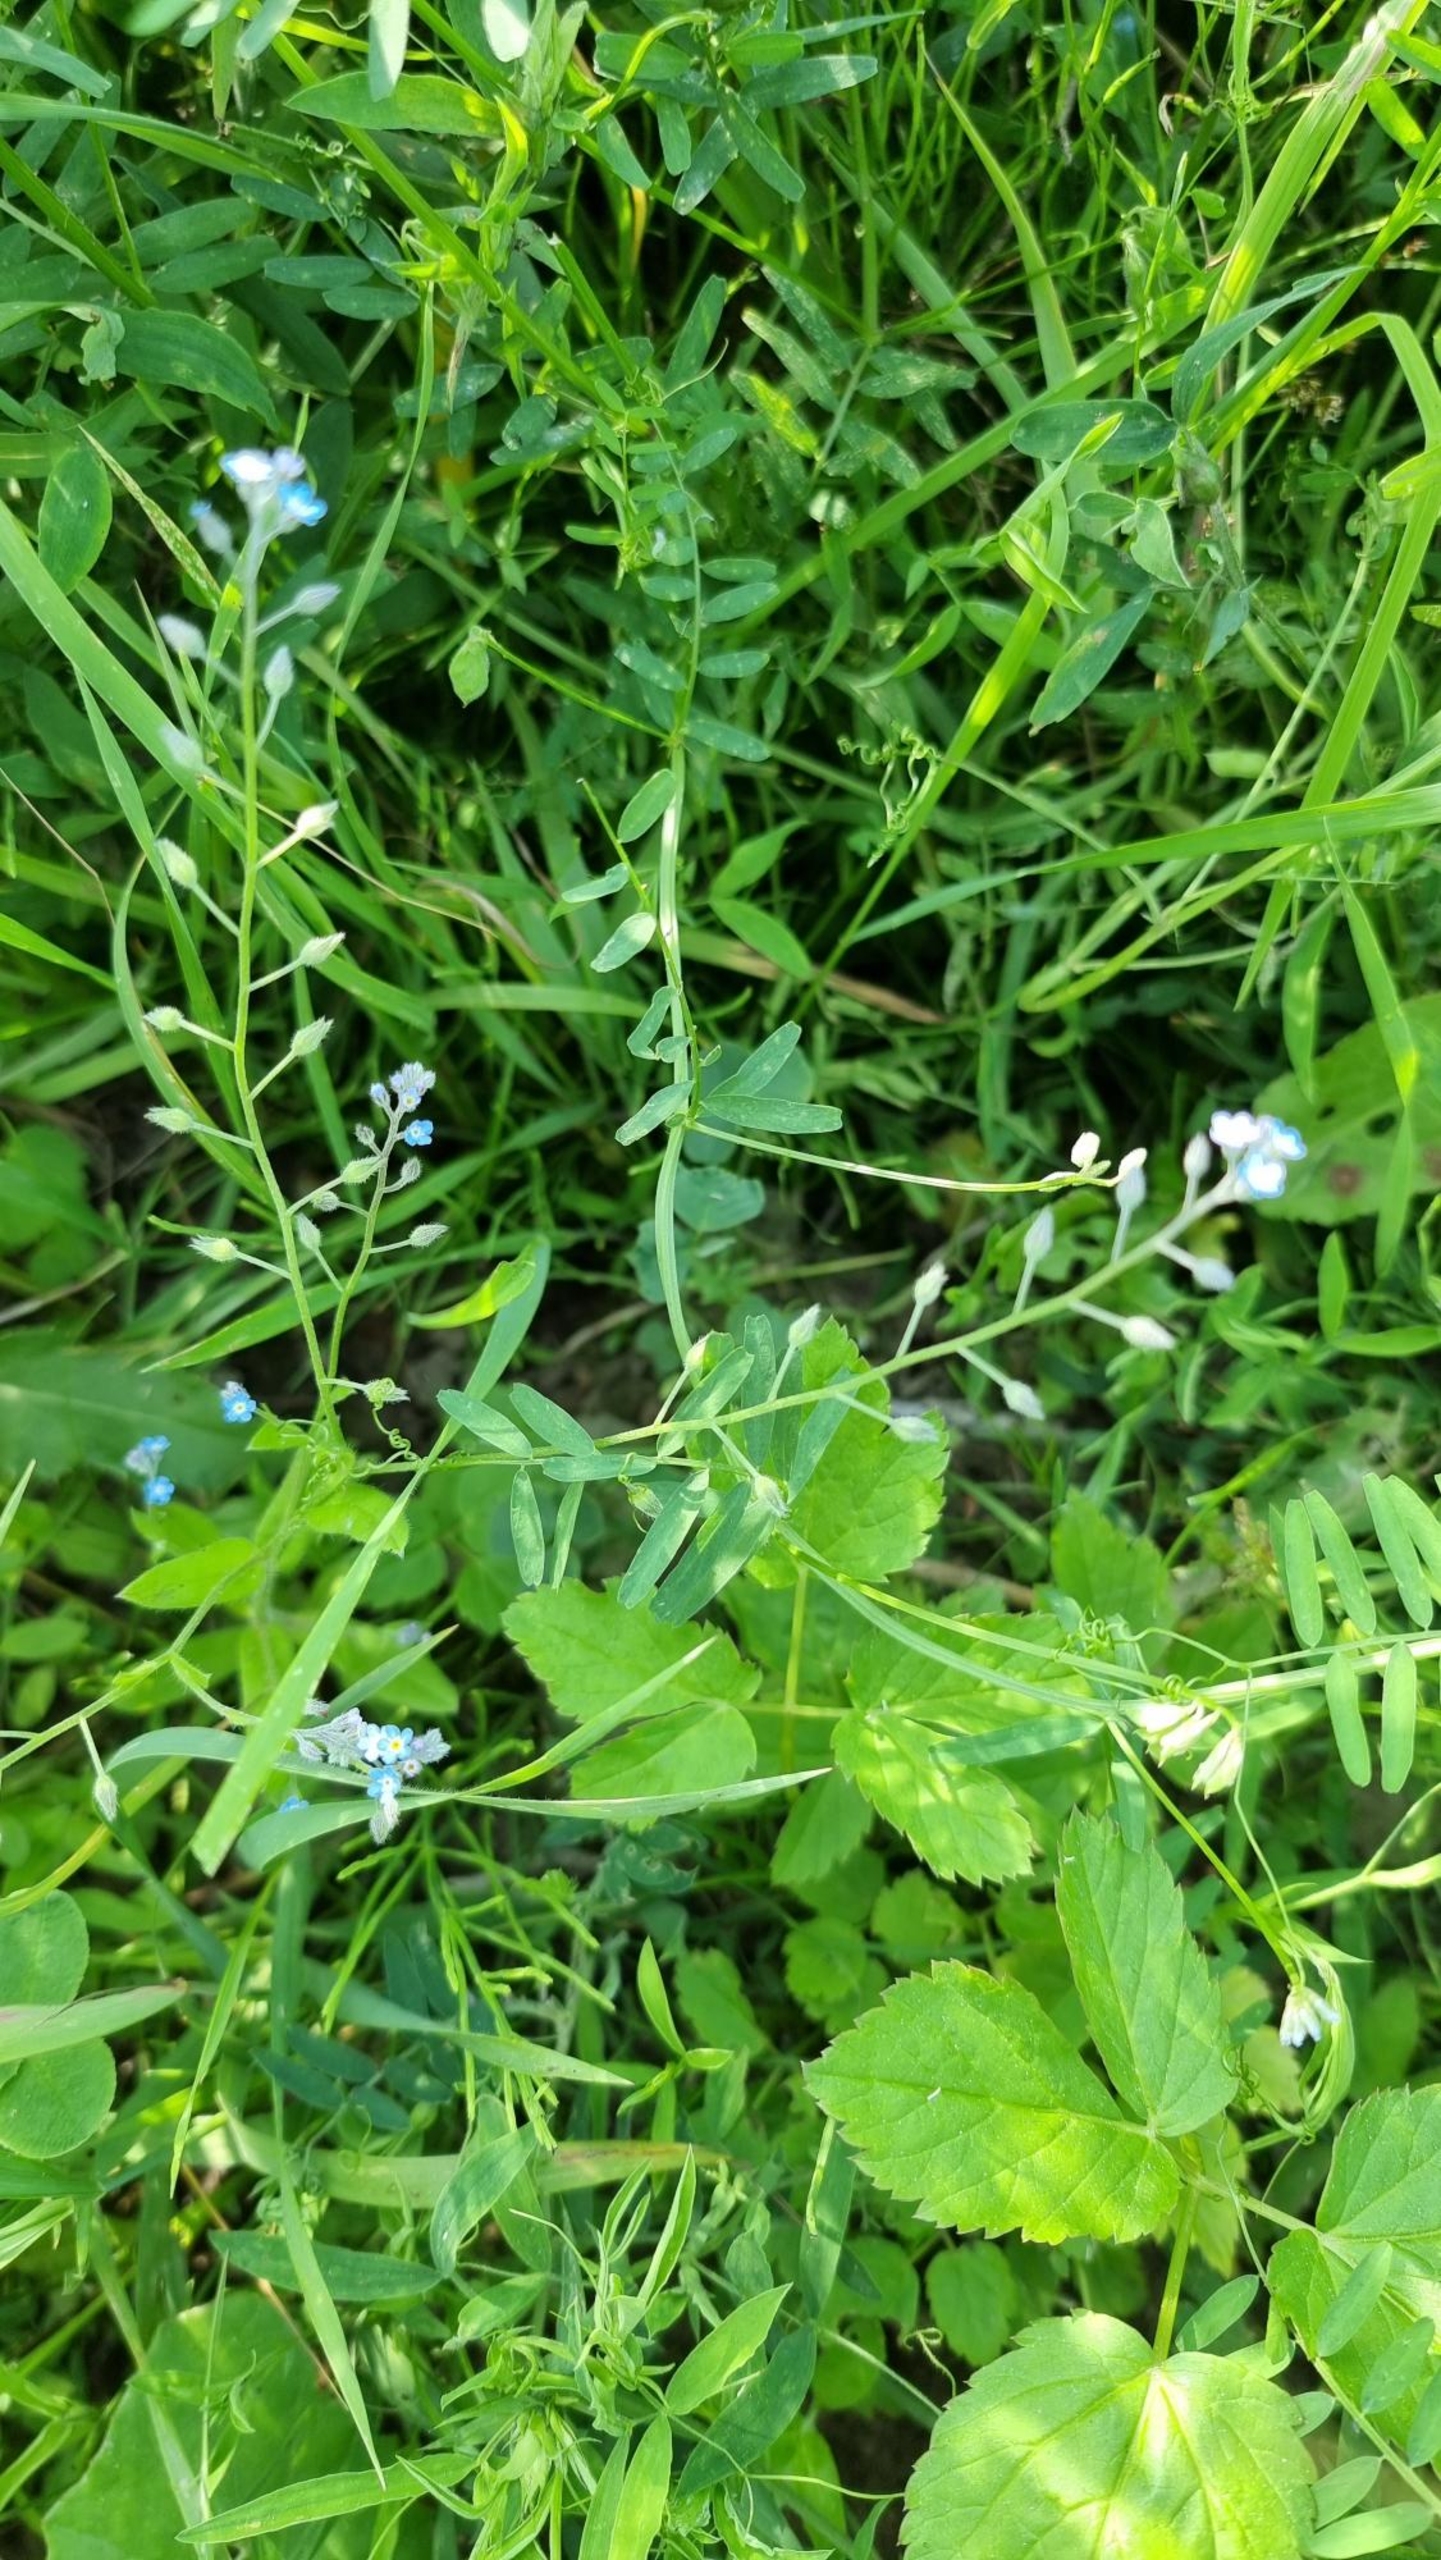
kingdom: Plantae
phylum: Tracheophyta
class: Magnoliopsida
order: Boraginales
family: Boraginaceae
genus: Myosotis
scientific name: Myosotis arvensis
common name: Mark-forglemmigej
